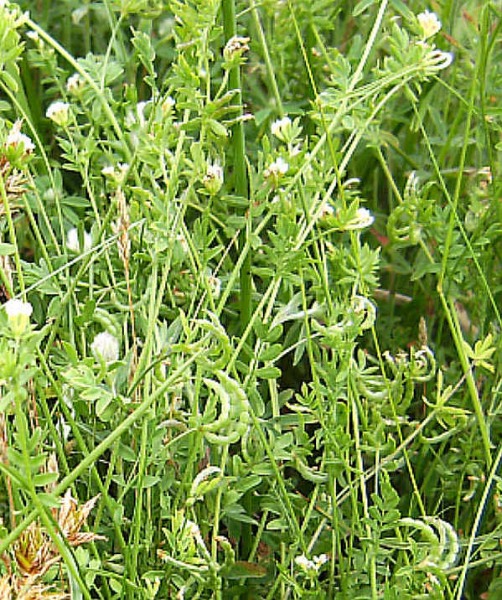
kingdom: Plantae
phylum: Tracheophyta
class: Magnoliopsida
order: Fabales
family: Fabaceae
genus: Ornithopus
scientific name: Ornithopus perpusillus
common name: Liden fugleklo
